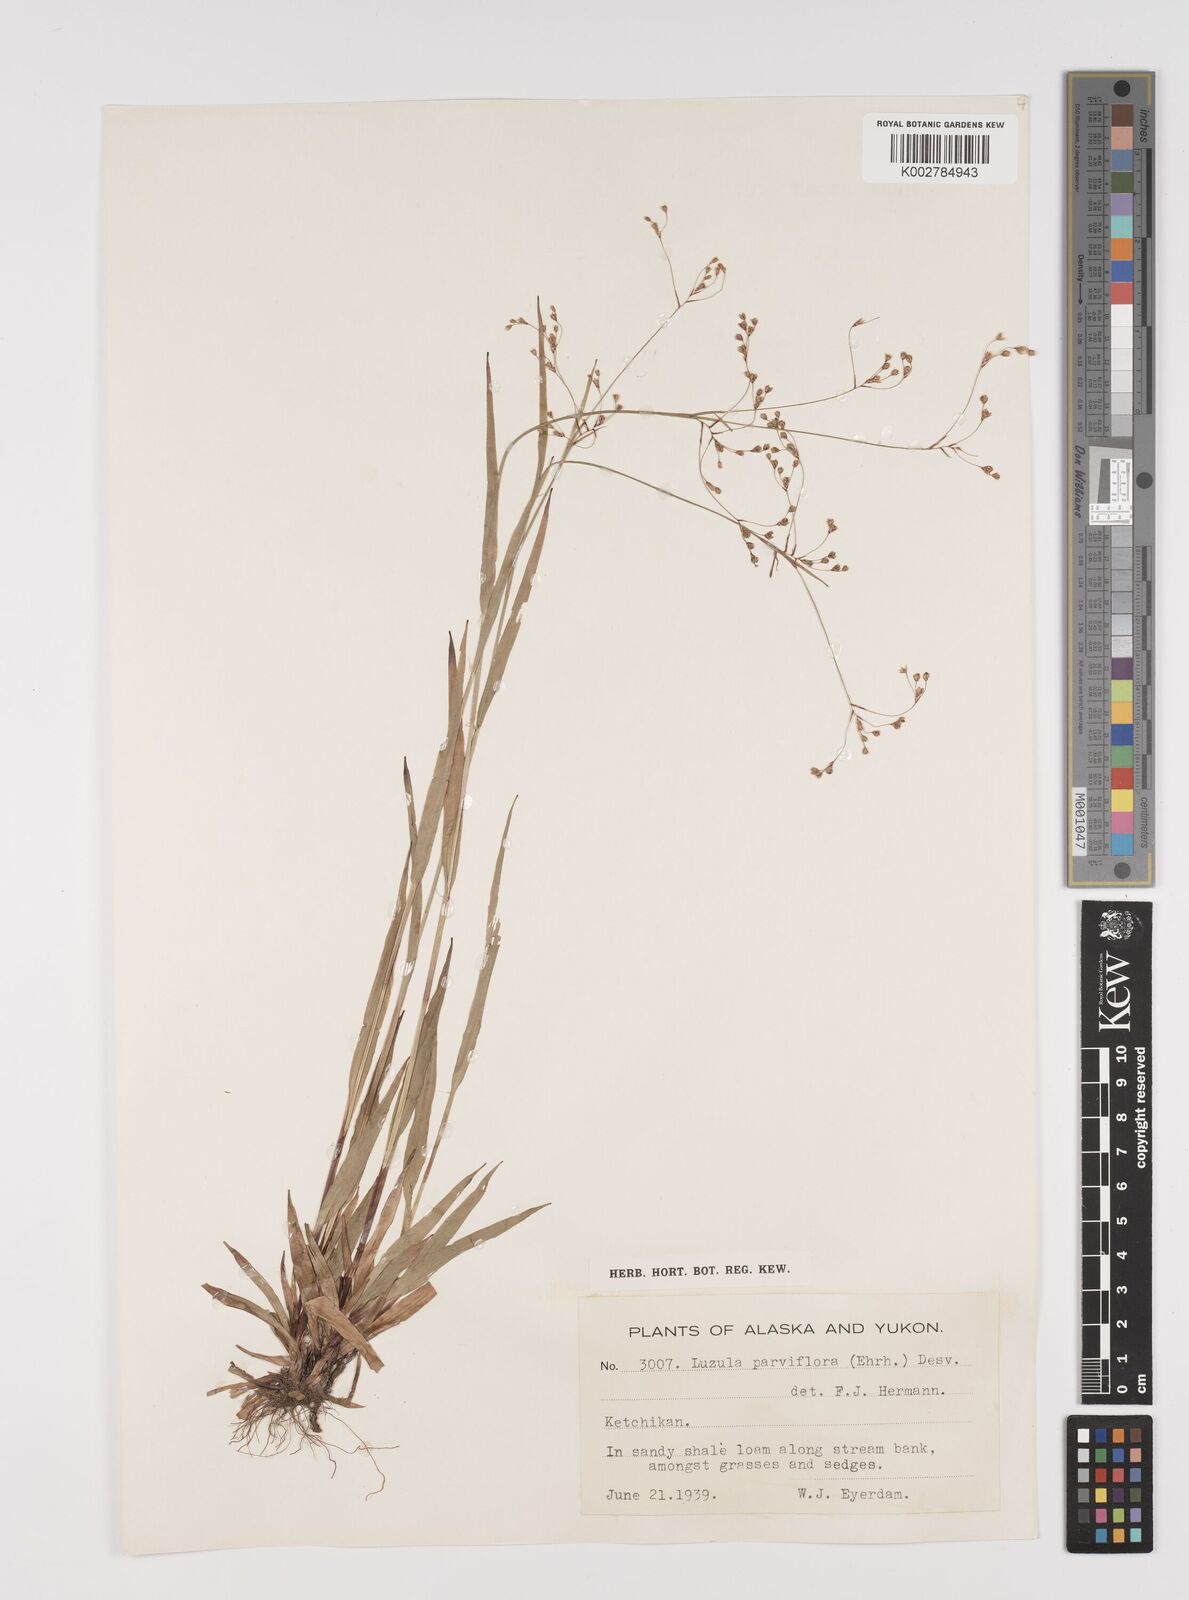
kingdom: Plantae
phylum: Tracheophyta
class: Liliopsida
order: Poales
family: Juncaceae
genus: Luzula
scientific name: Luzula parviflora
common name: Millet woodrush
